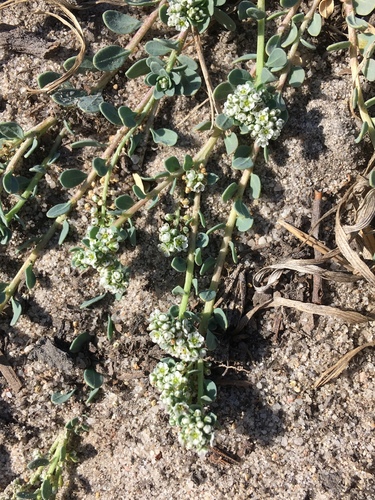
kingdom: Plantae
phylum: Tracheophyta
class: Magnoliopsida
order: Caryophyllales
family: Caryophyllaceae
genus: Corrigiola
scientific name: Corrigiola litoralis
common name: Strapwort
